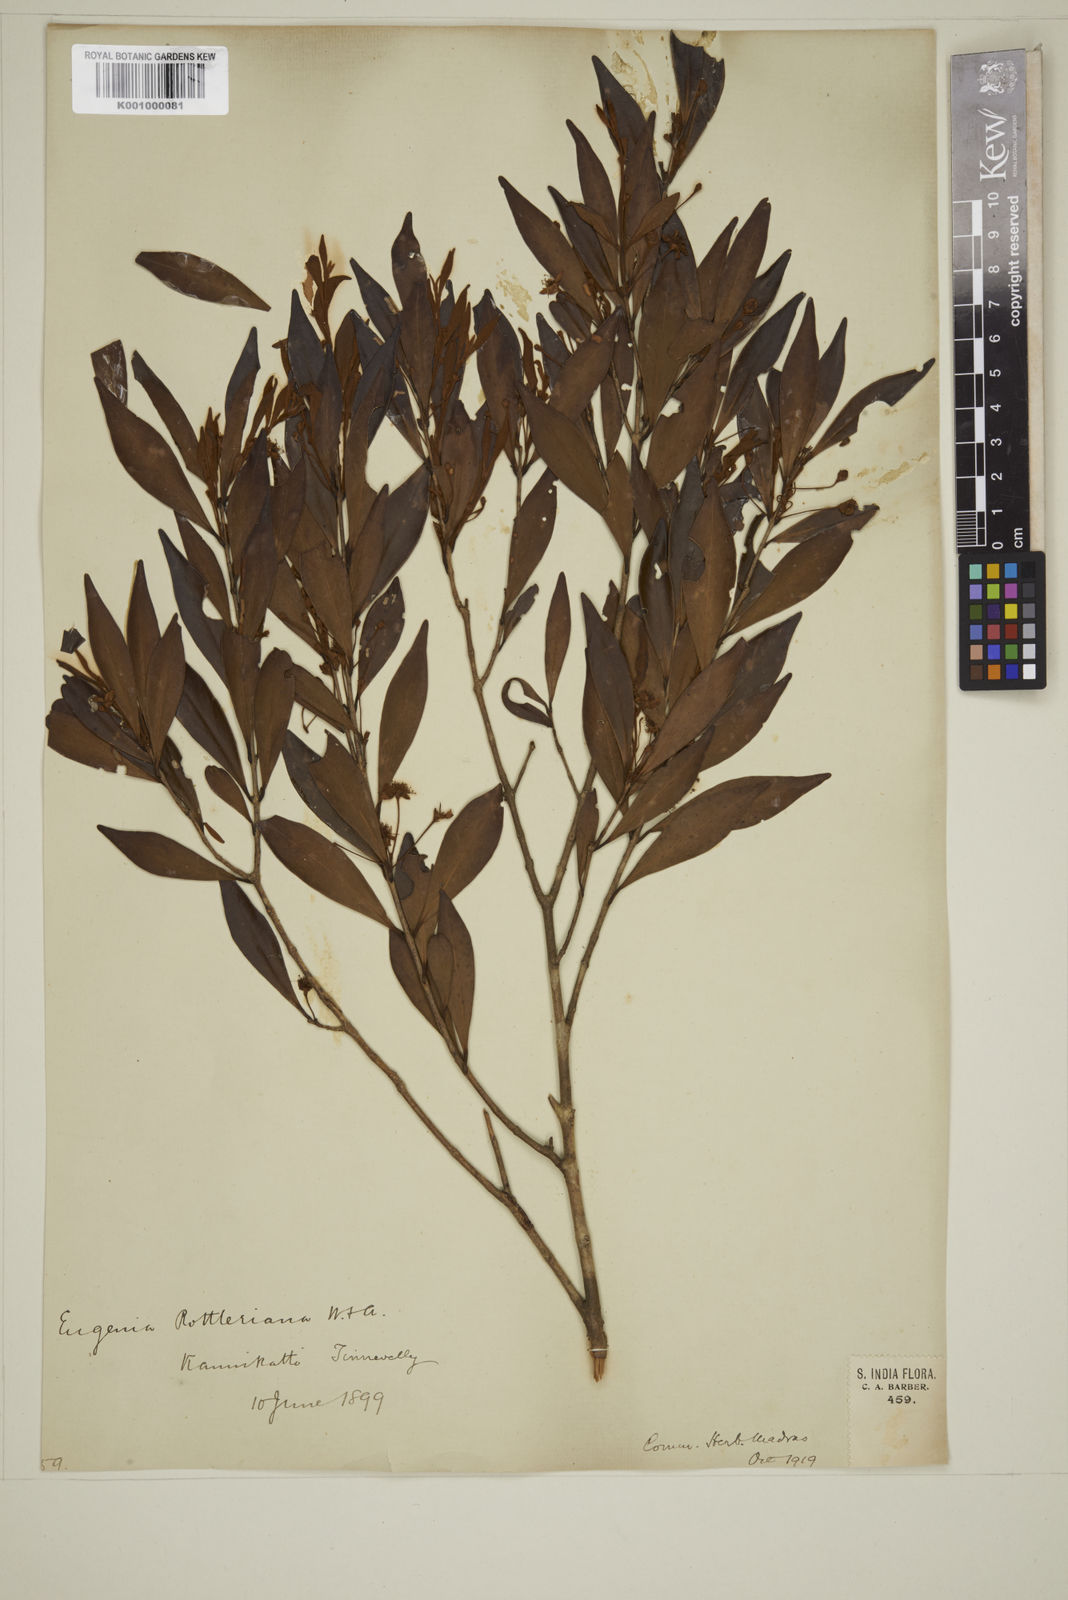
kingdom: Plantae
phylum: Tracheophyta
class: Magnoliopsida
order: Myrtales
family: Myrtaceae
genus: Eugenia
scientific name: Eugenia rottleriana
